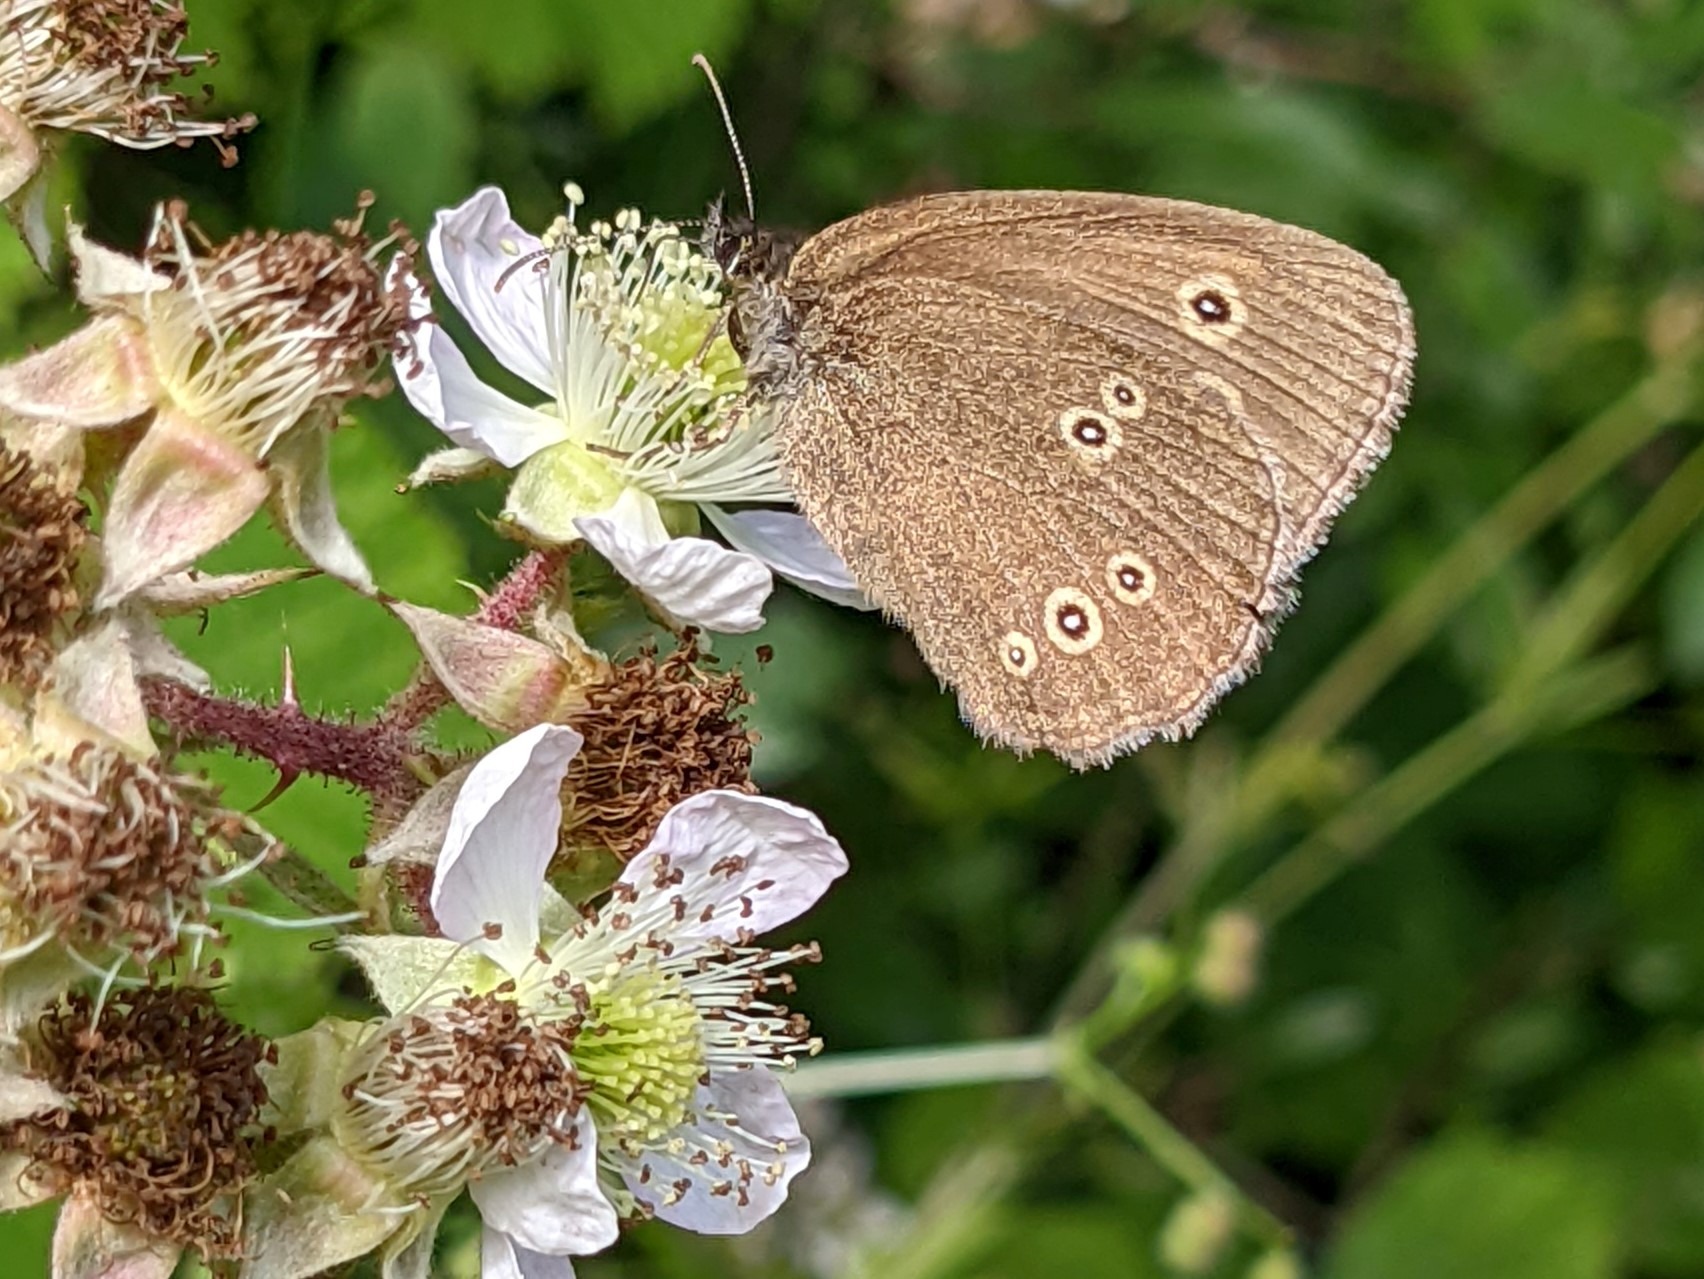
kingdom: Animalia
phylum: Arthropoda
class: Insecta
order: Lepidoptera
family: Nymphalidae
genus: Aphantopus
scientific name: Aphantopus hyperantus
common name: Engrandøje
